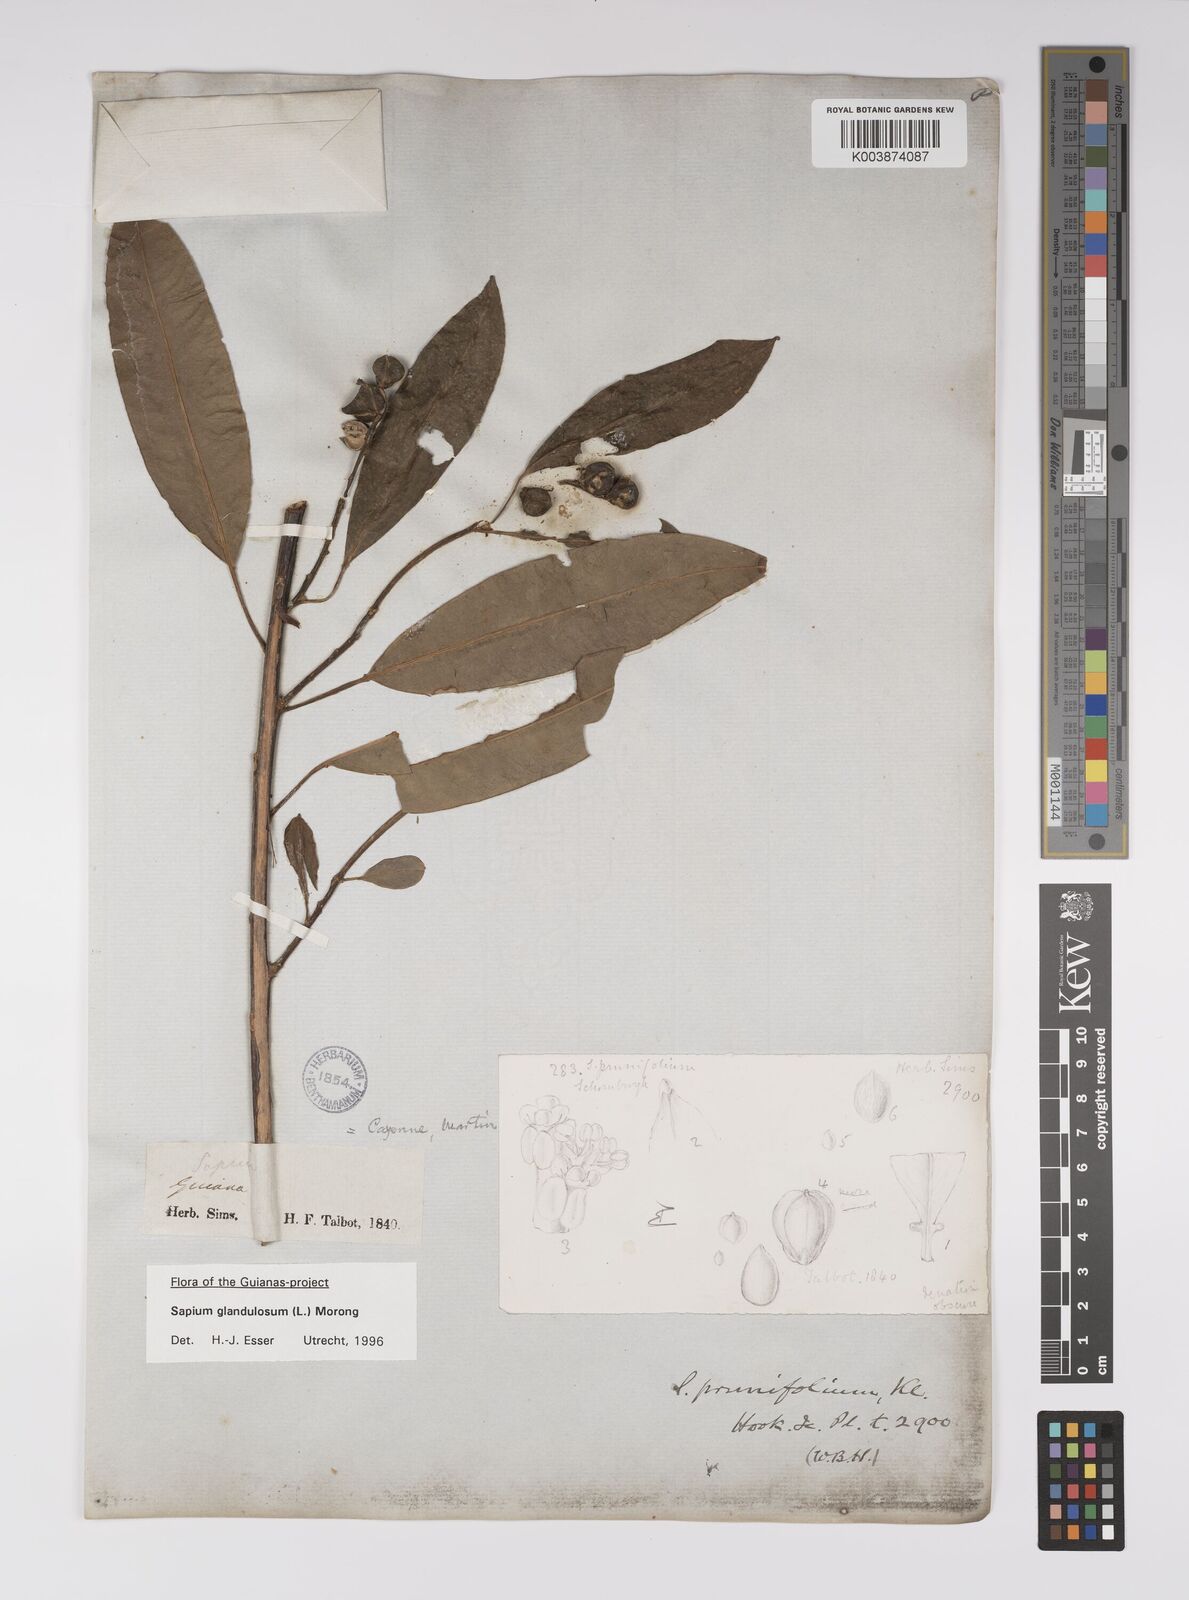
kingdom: Plantae
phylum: Tracheophyta
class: Magnoliopsida
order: Malpighiales
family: Euphorbiaceae
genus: Sapium
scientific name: Sapium glandulosum
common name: Milktree
